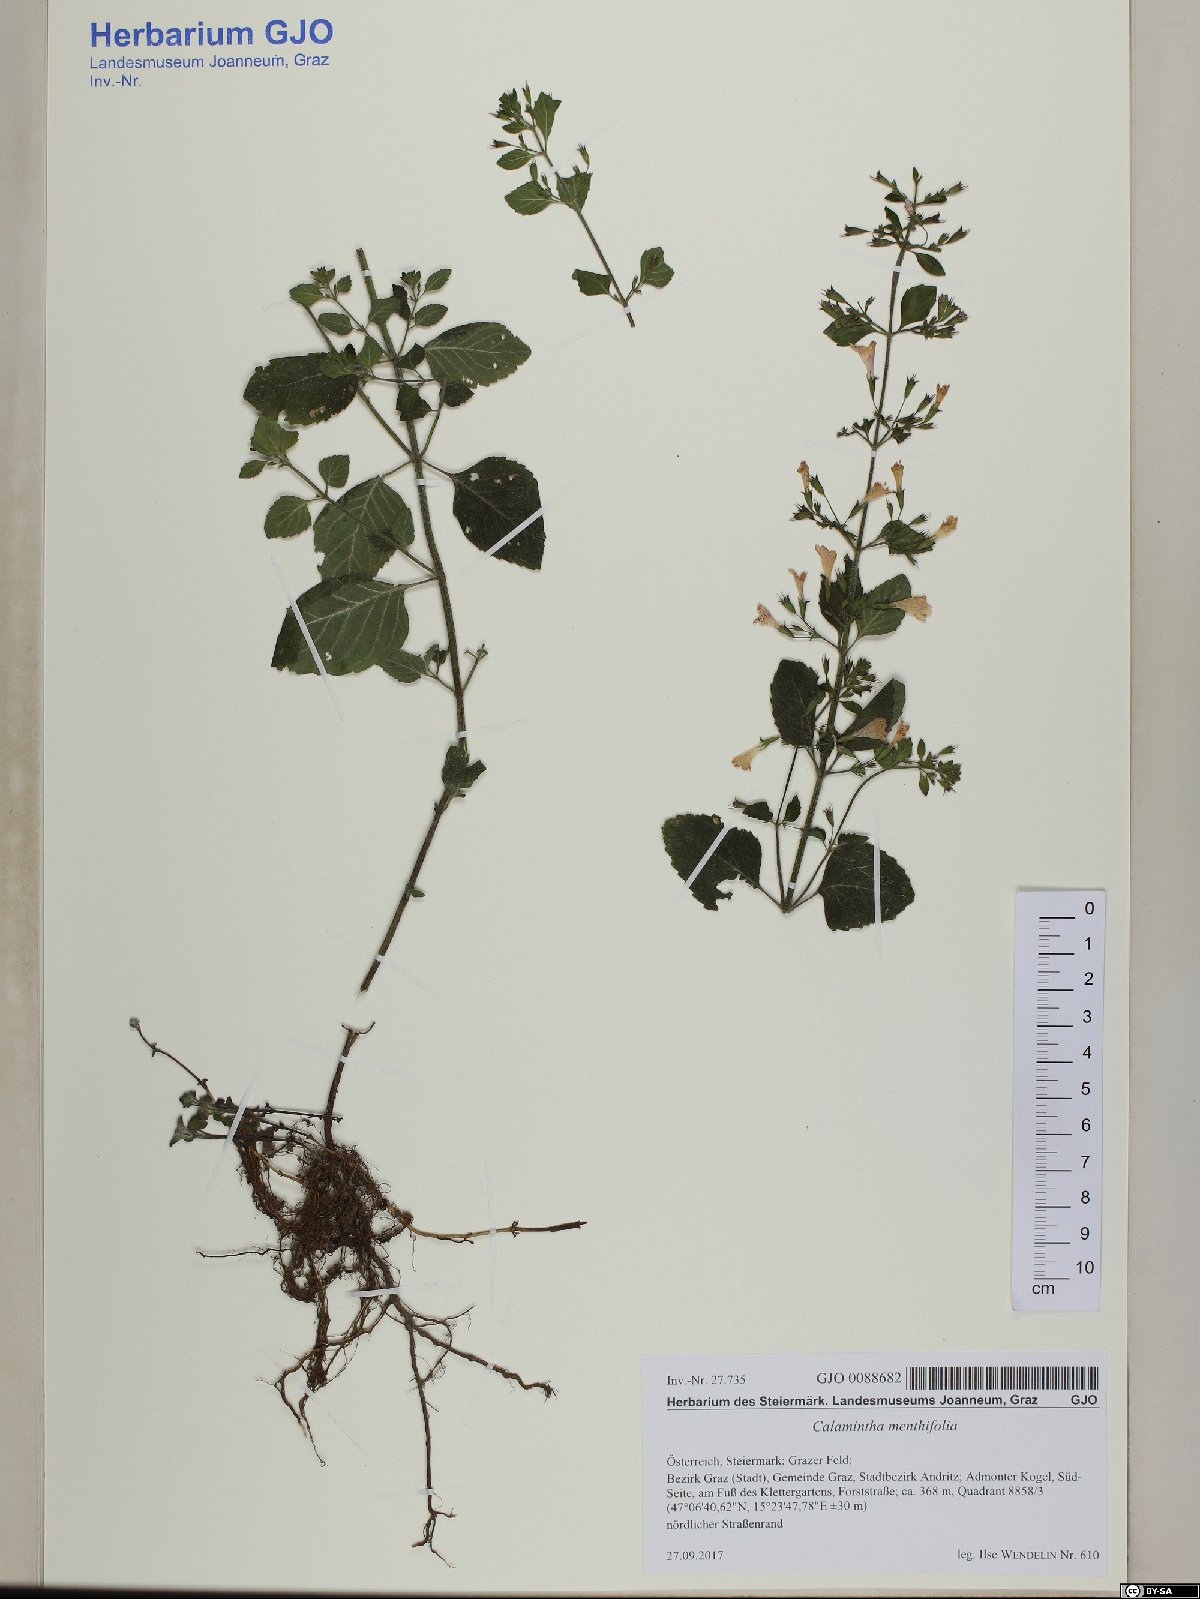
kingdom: Plantae
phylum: Tracheophyta
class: Magnoliopsida
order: Lamiales
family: Lamiaceae
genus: Clinopodium
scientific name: Clinopodium menthifolium
